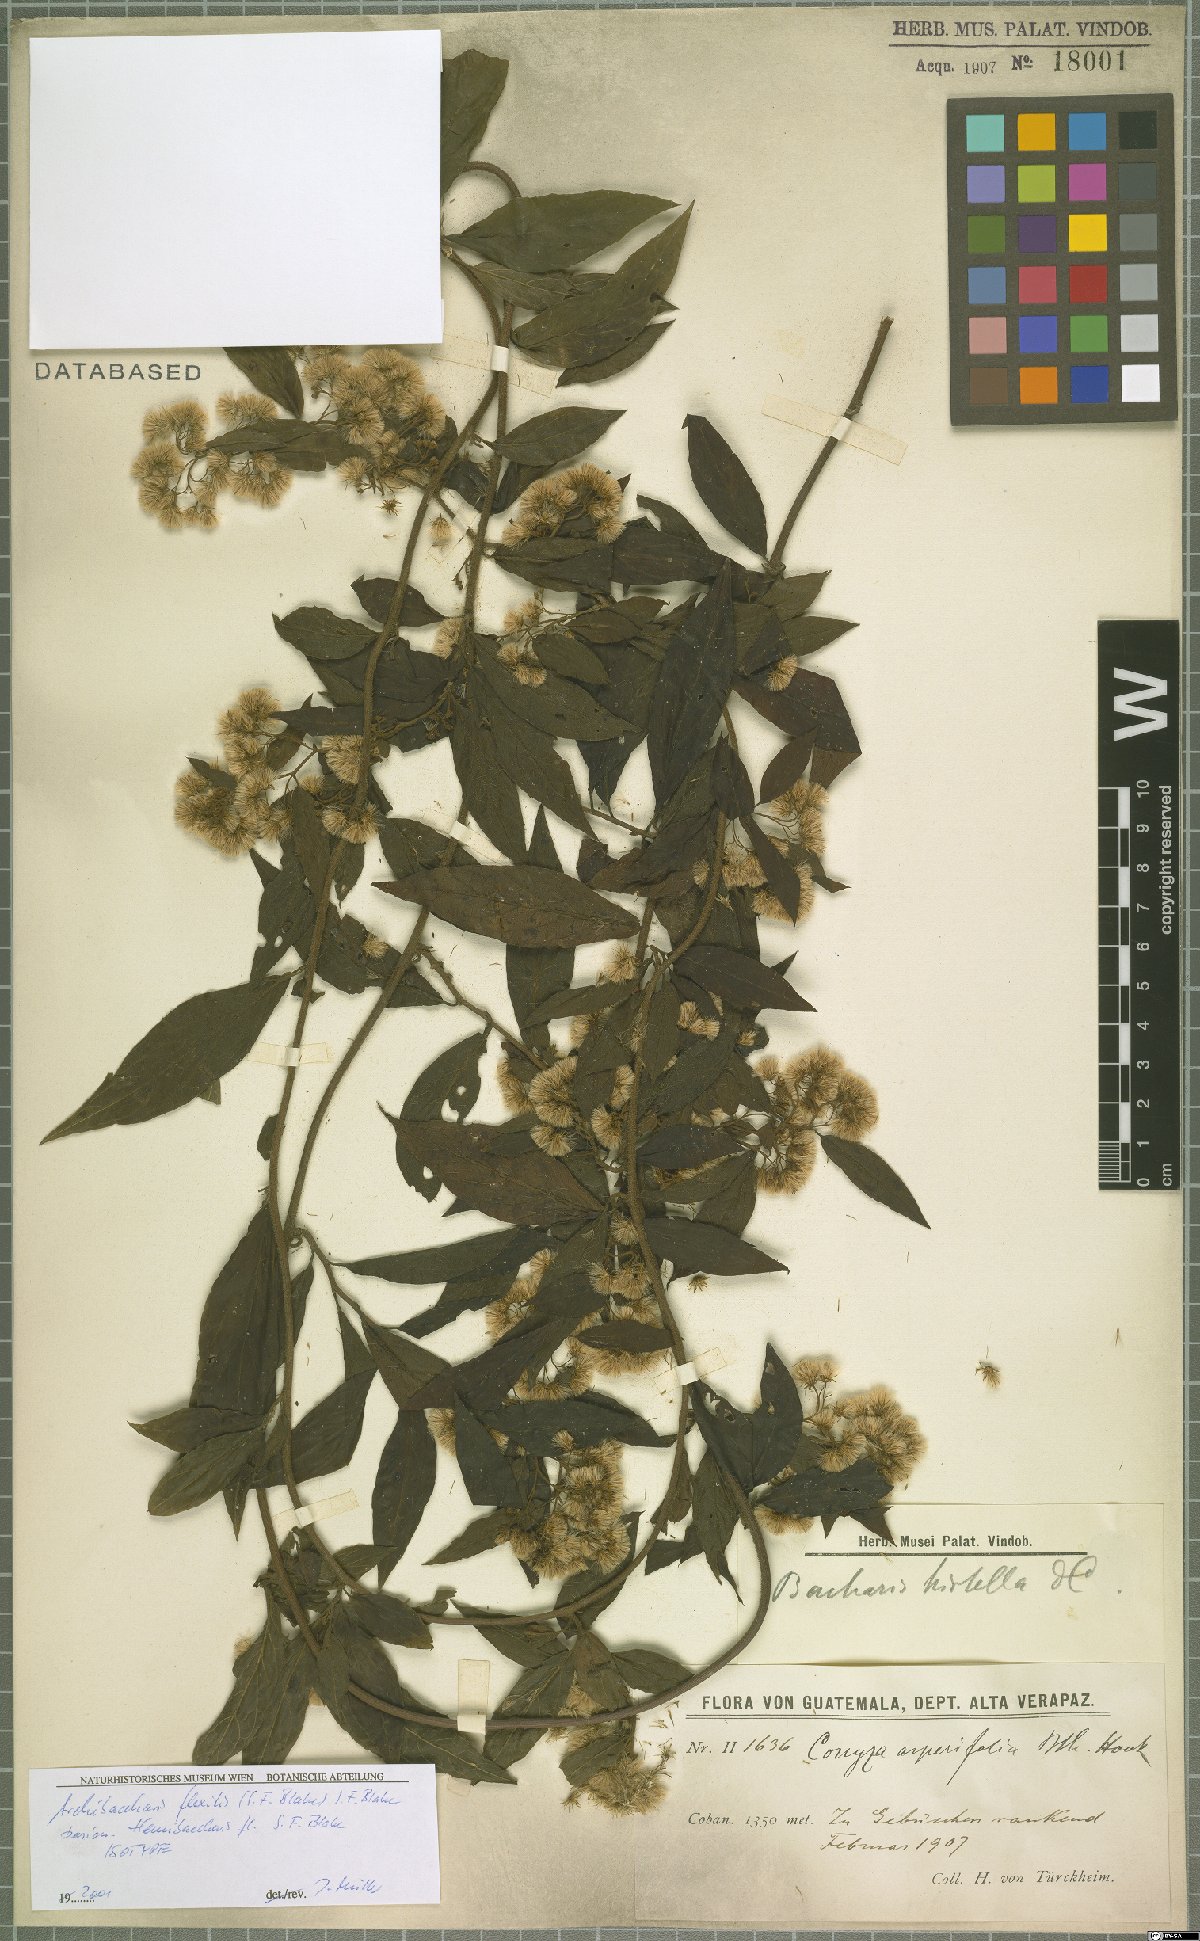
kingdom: Plantae
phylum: Tracheophyta
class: Magnoliopsida
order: Asterales
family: Asteraceae
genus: Archibaccharis
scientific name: Archibaccharis flexilis
